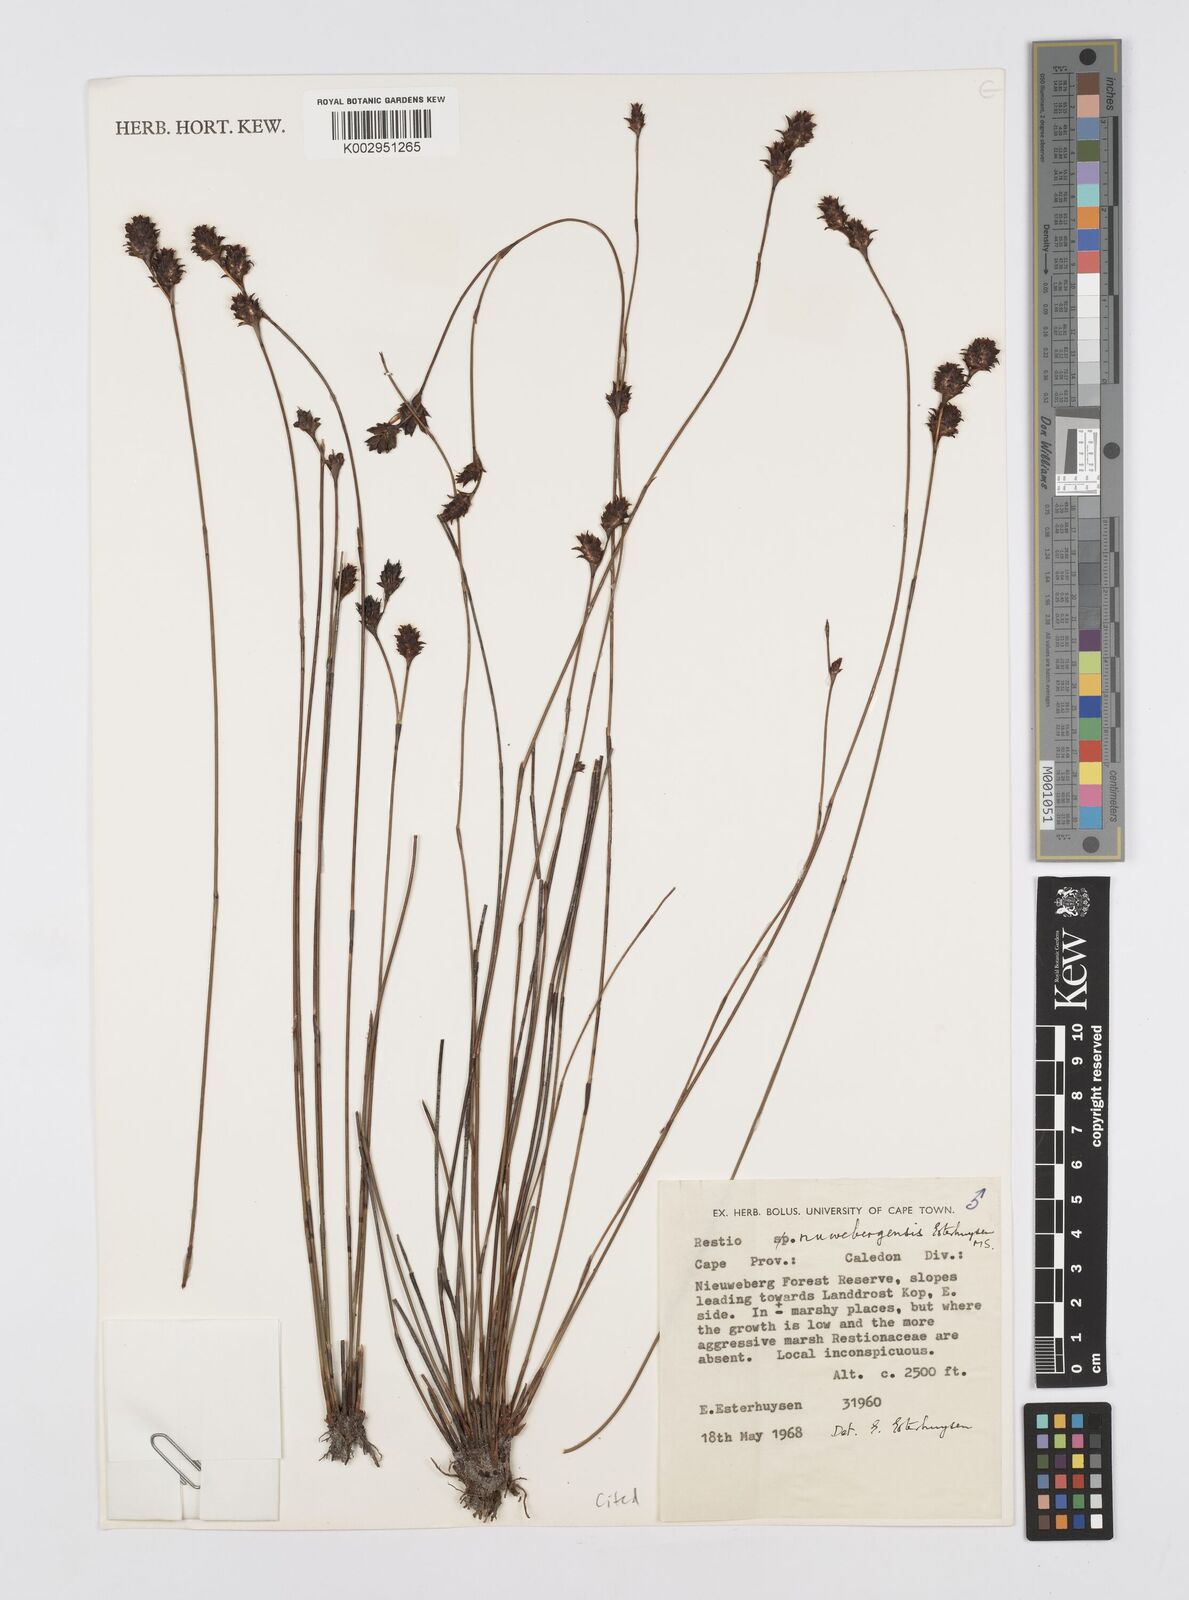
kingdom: Plantae
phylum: Tracheophyta
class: Liliopsida
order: Poales
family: Restionaceae
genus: Restio
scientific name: Restio nuwebergensis
